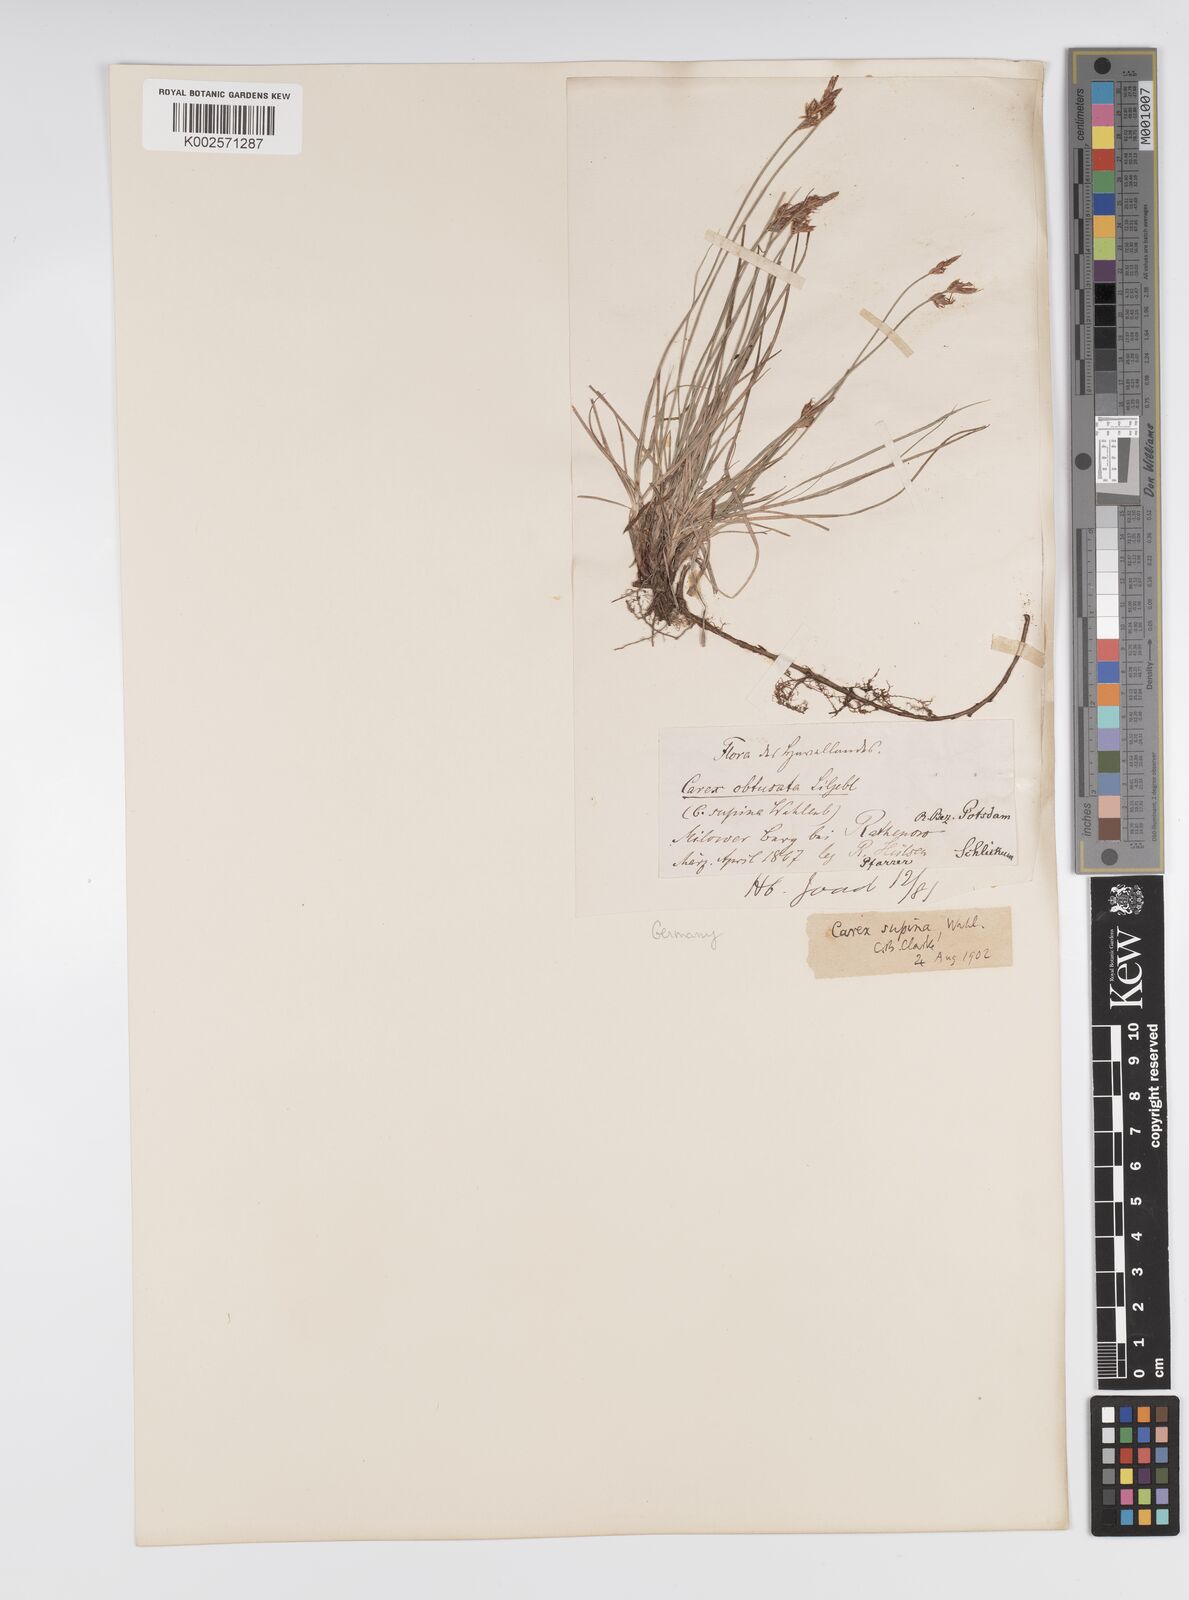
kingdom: Plantae
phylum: Tracheophyta
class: Liliopsida
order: Poales
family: Cyperaceae
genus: Carex
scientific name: Carex supina
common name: Lying-back sedge
